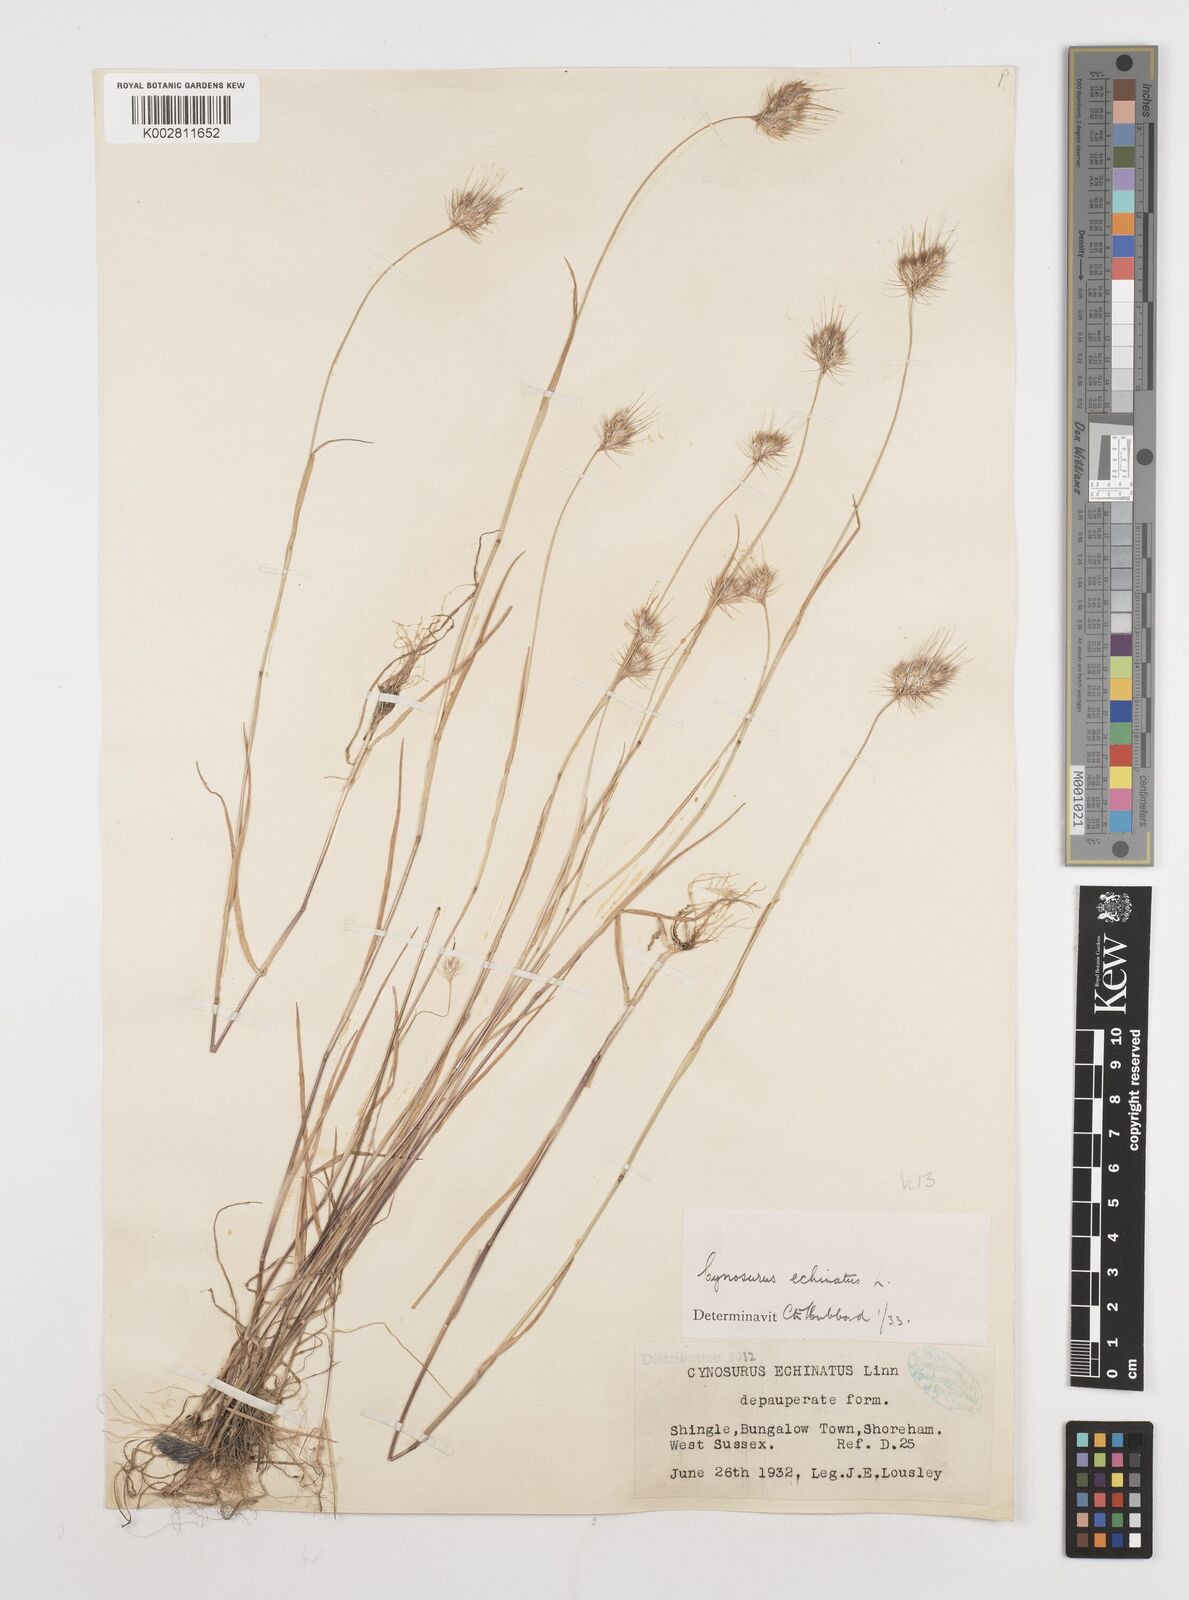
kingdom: Plantae
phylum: Tracheophyta
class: Liliopsida
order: Poales
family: Poaceae
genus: Cynosurus
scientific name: Cynosurus echinatus
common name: Rough dog's-tail
